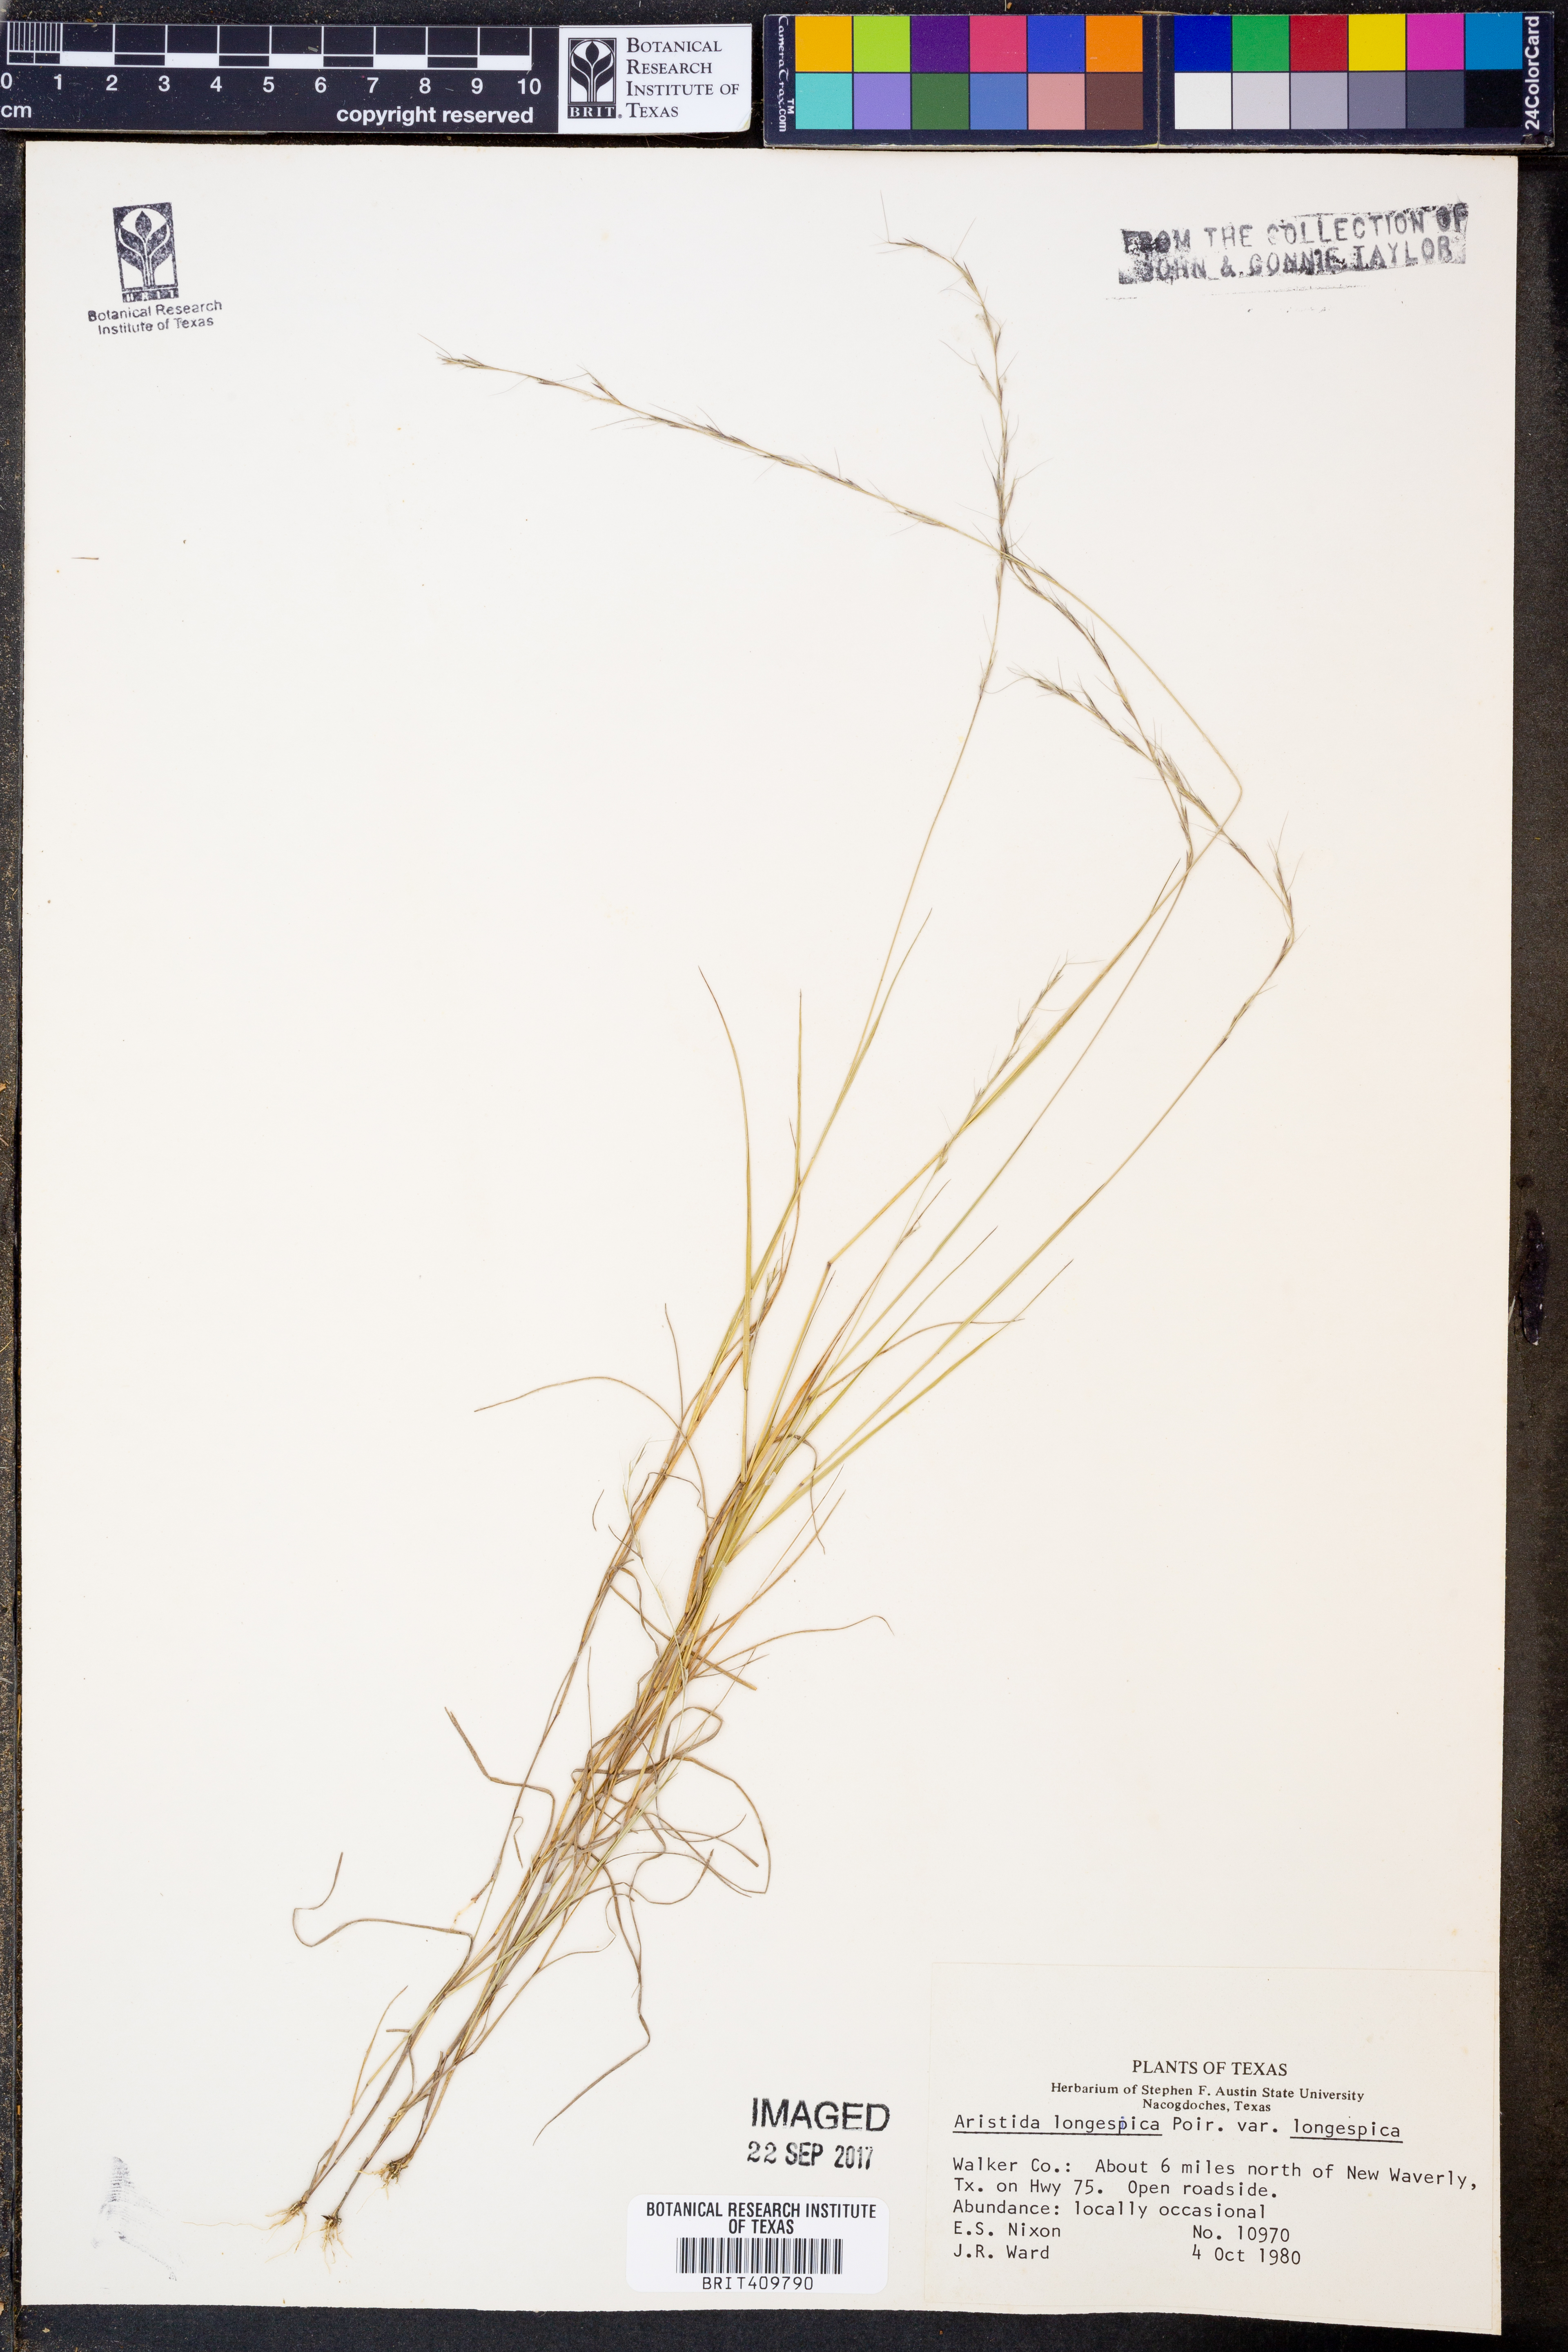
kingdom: Plantae
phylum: Tracheophyta
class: Liliopsida
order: Poales
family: Poaceae
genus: Aristida
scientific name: Aristida longespica
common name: Long-spiked triple-awned grass
